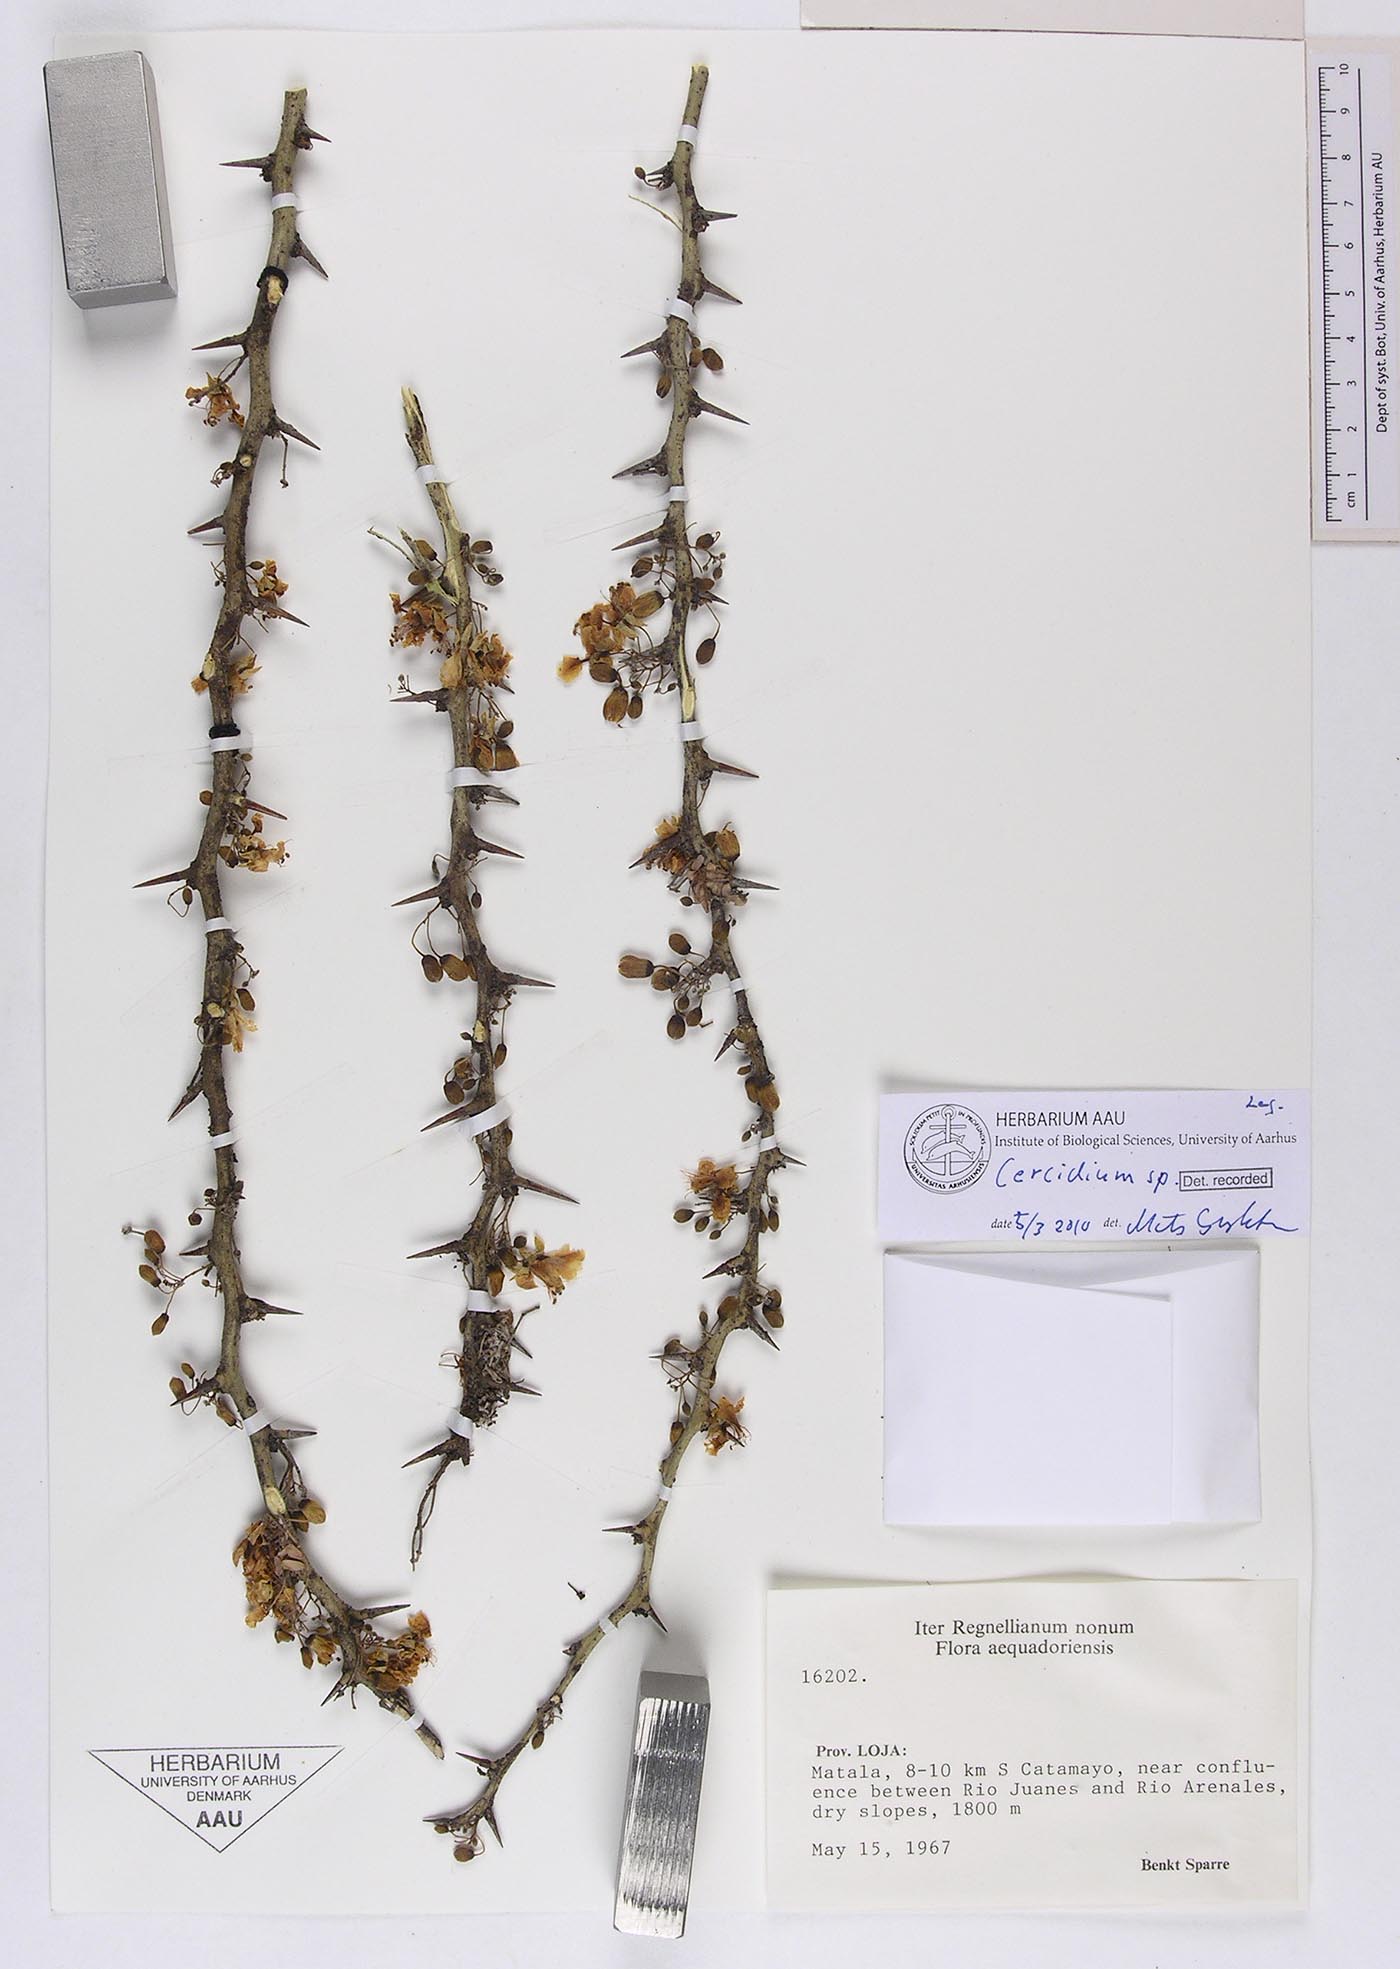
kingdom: Plantae
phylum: Chlorophyta
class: Chlorophyceae
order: Volvocales
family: Chlamydomonadaceae
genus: Cercidium
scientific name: Cercidium
